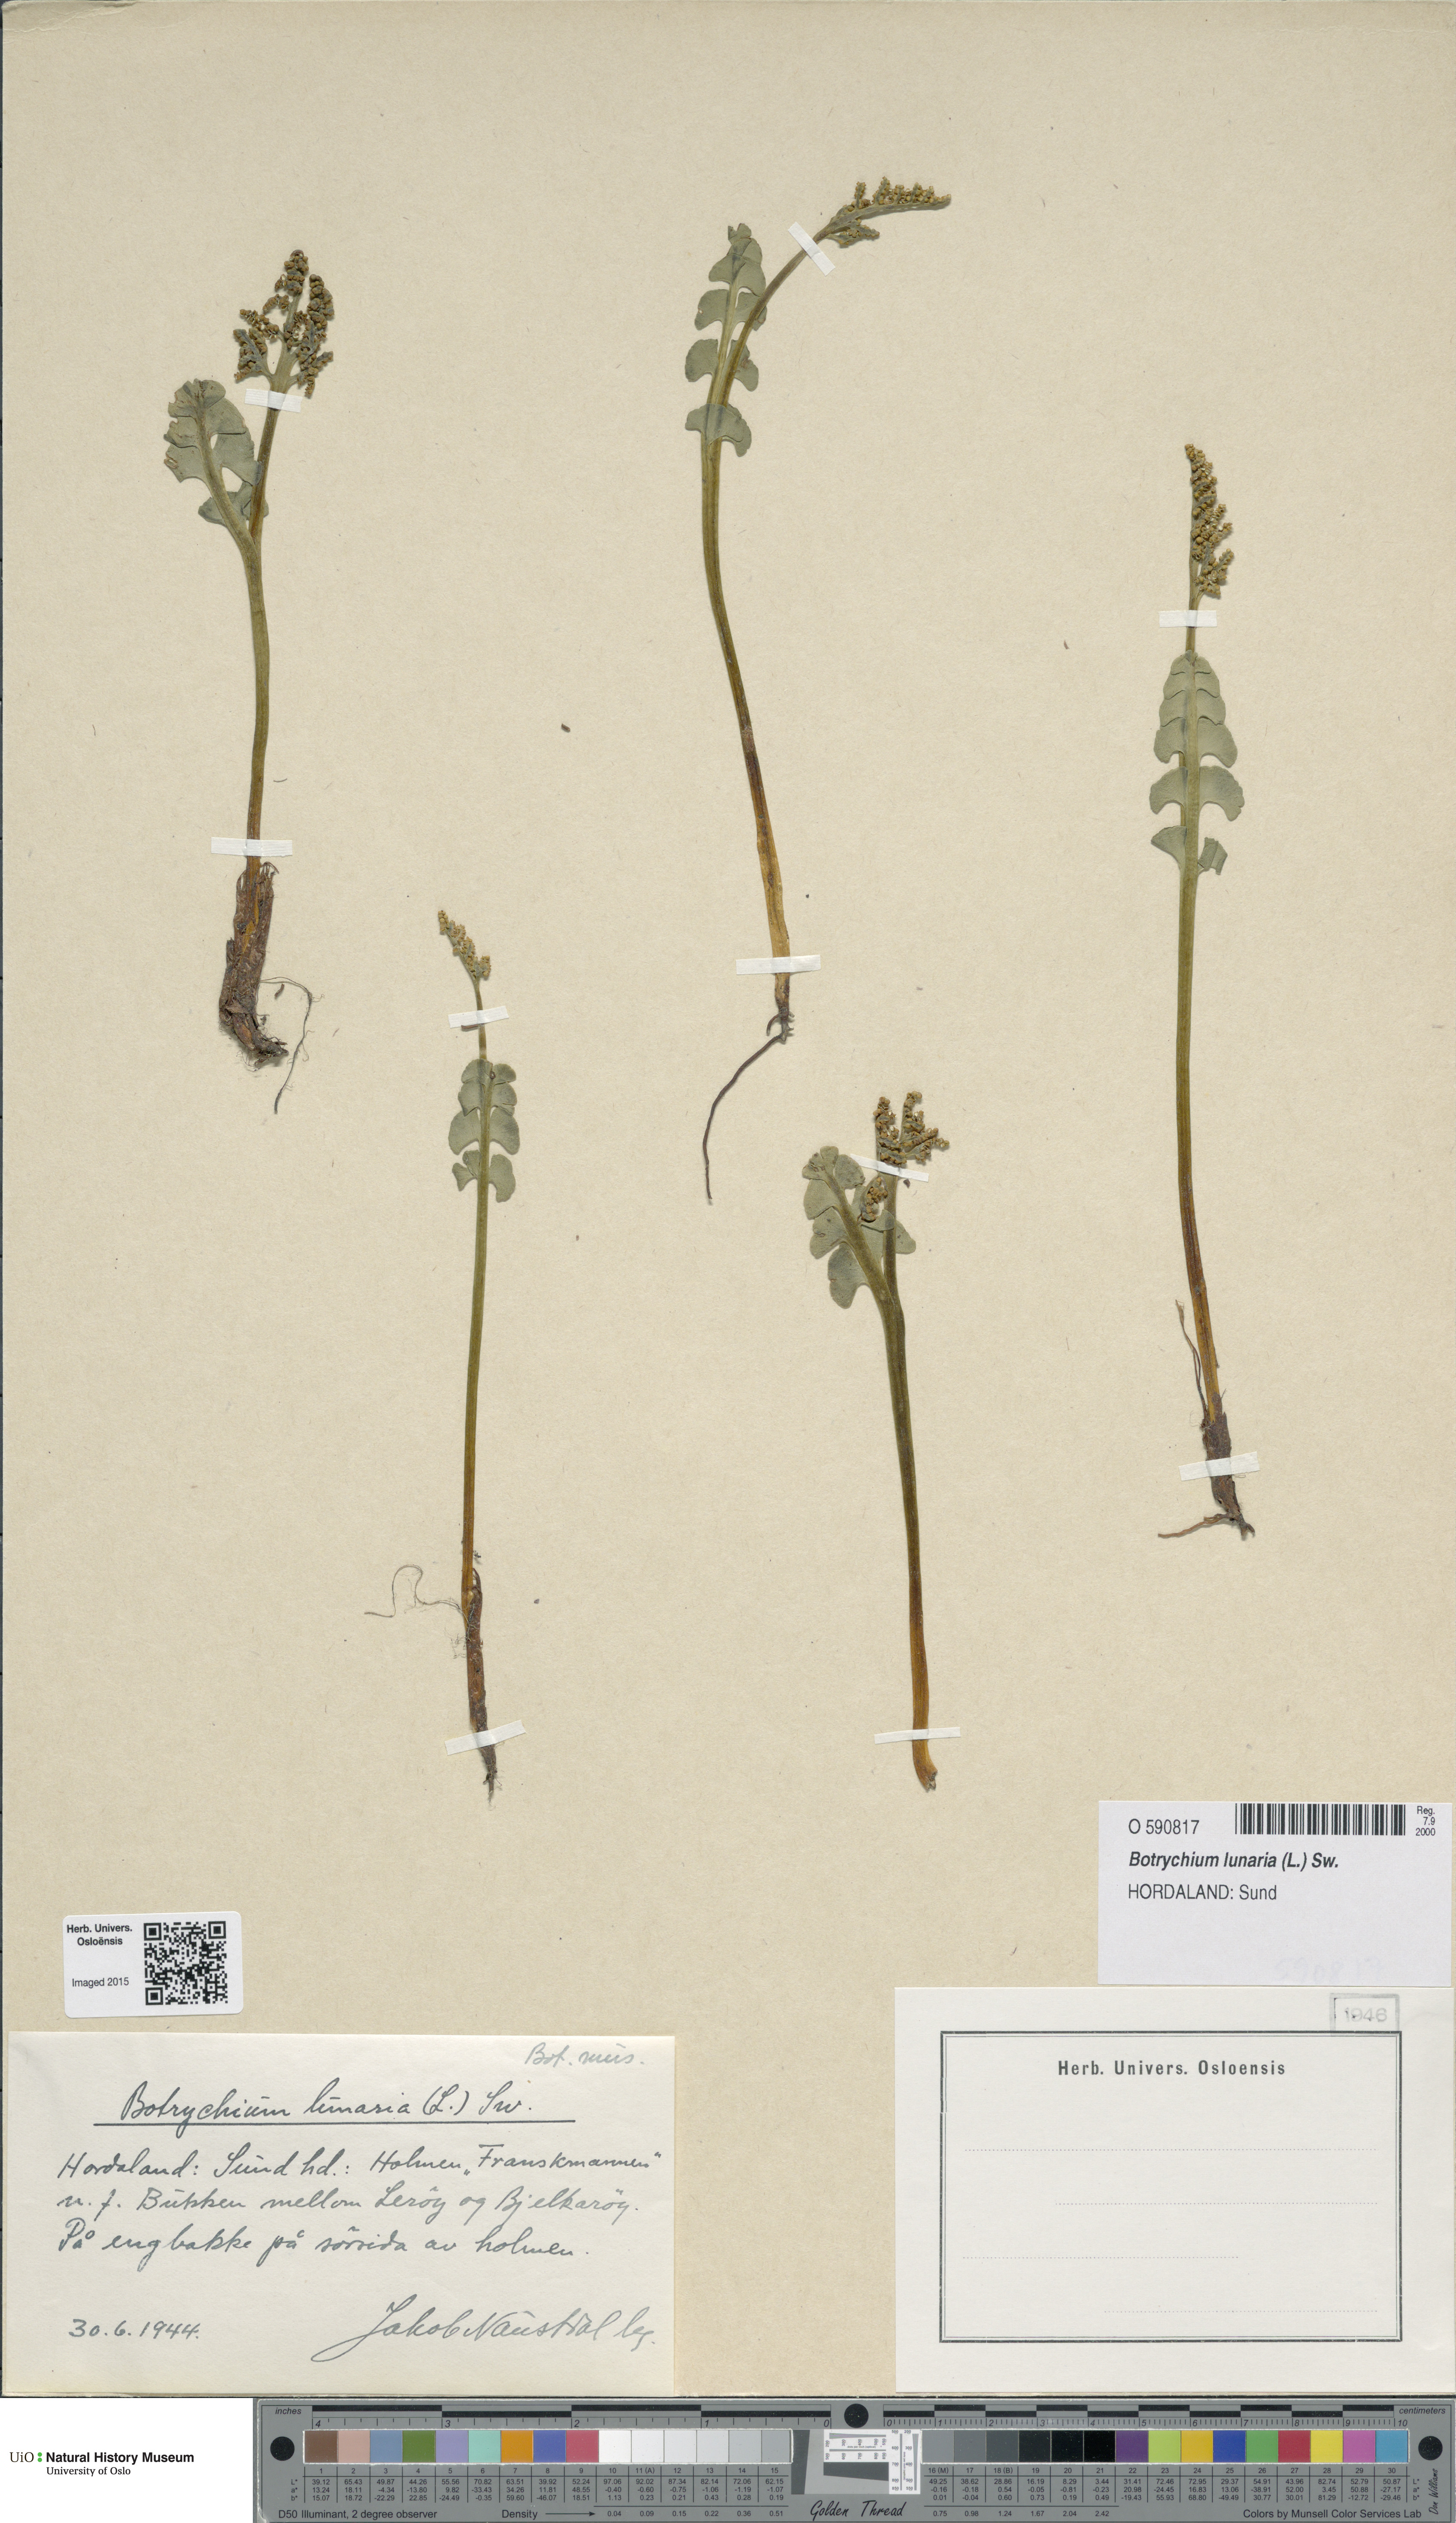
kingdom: Plantae
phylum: Tracheophyta
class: Polypodiopsida
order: Ophioglossales
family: Ophioglossaceae
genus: Botrychium
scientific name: Botrychium lunaria
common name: Moonwort
